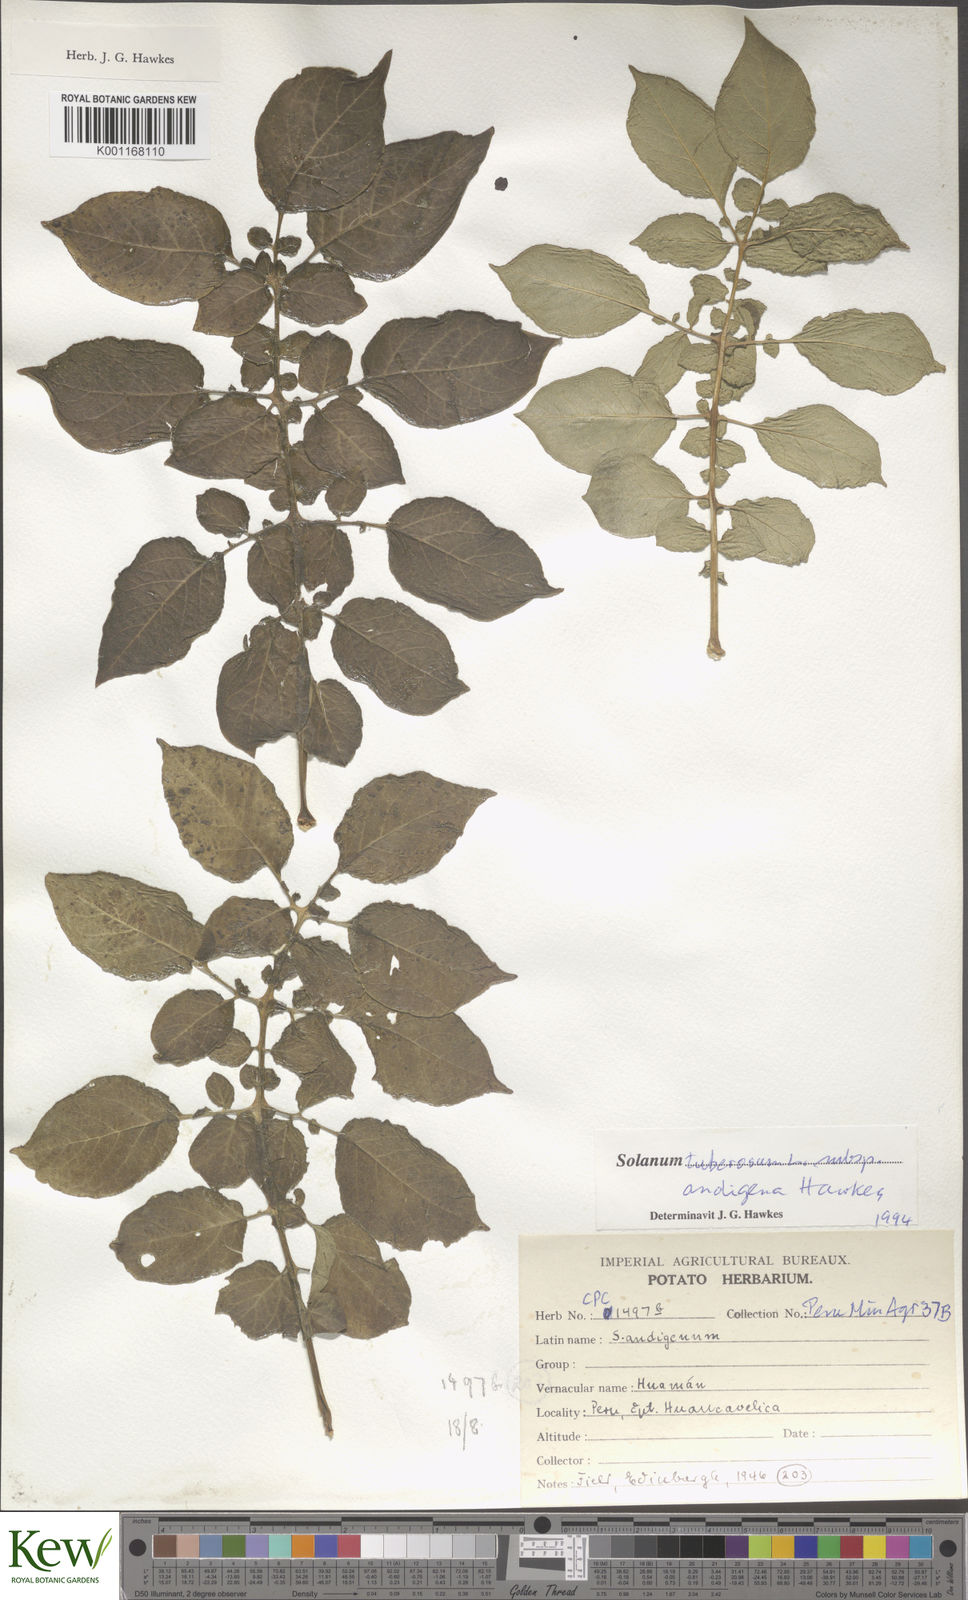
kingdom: Plantae
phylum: Tracheophyta
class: Magnoliopsida
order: Solanales
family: Solanaceae
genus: Solanum
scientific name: Solanum tuberosum
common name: Potato
